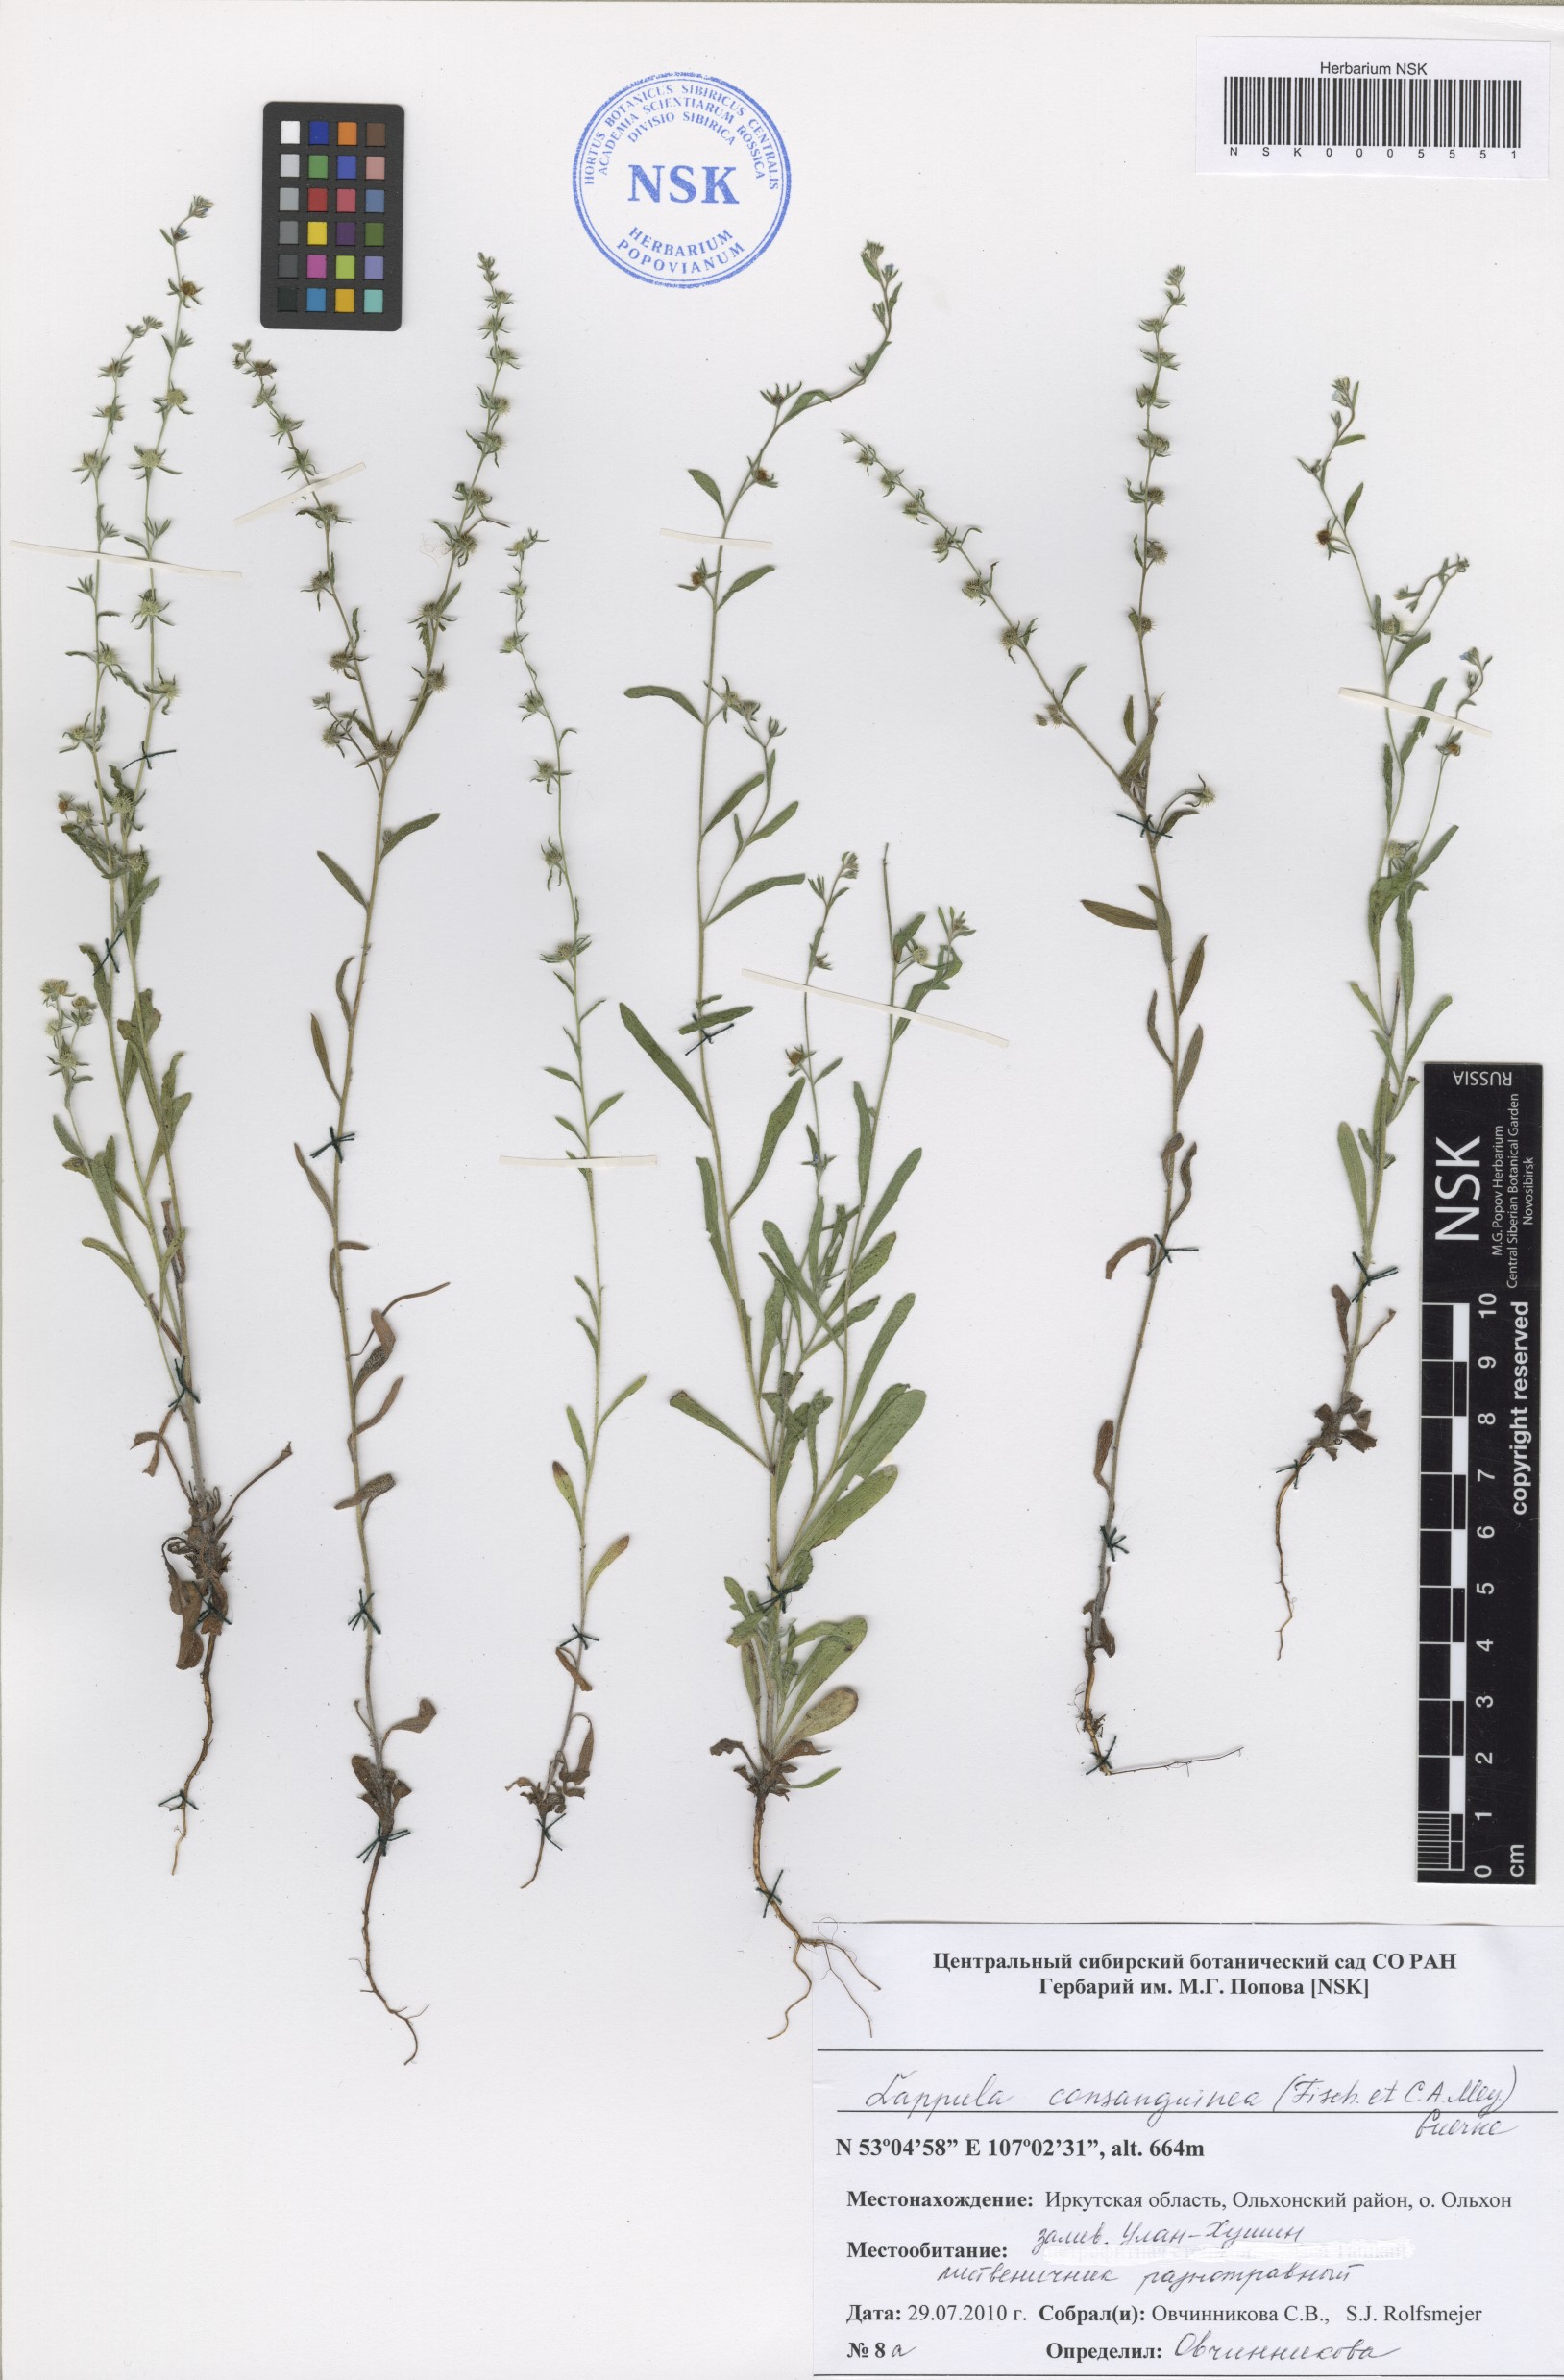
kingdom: Plantae
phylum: Tracheophyta
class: Magnoliopsida
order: Boraginales
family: Boraginaceae
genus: Lappula
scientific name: Lappula squarrosa
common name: European stickseed
